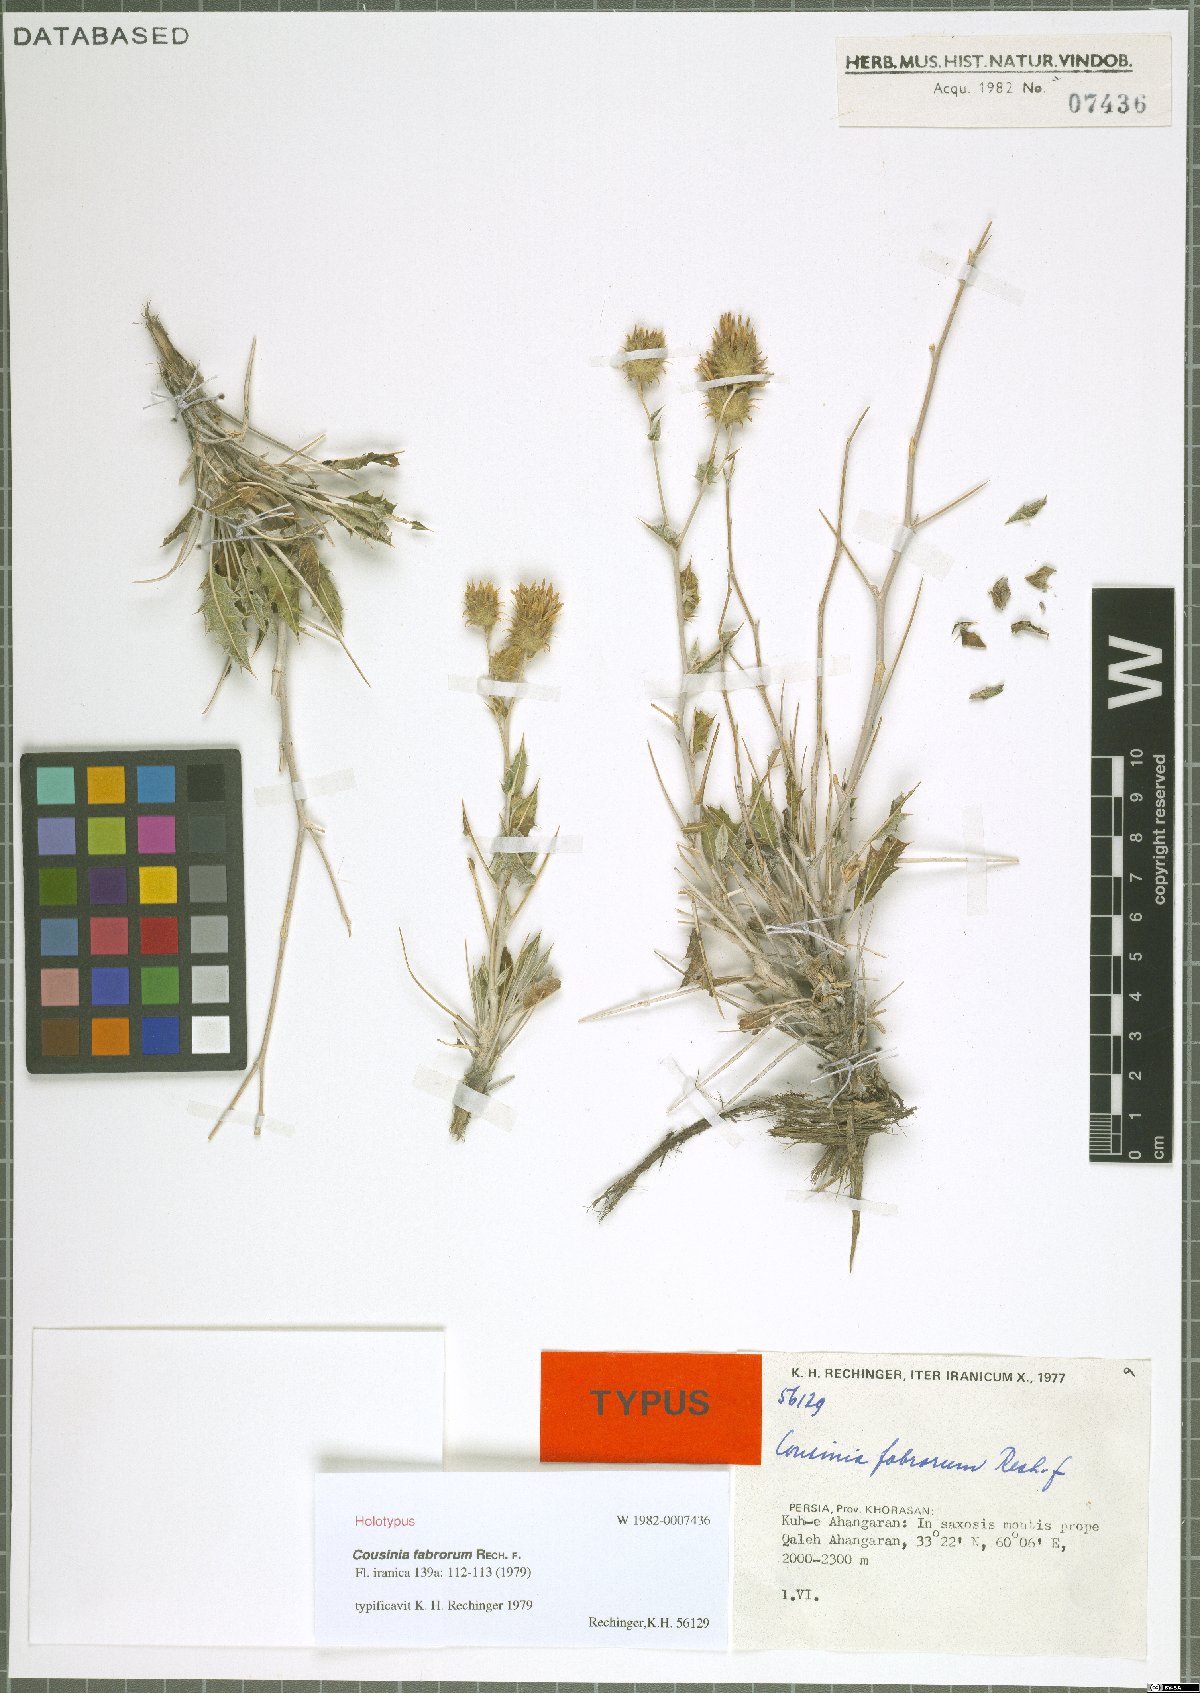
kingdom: Plantae
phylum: Tracheophyta
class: Magnoliopsida
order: Asterales
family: Asteraceae
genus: Cousinia
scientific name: Cousinia fabrorum
